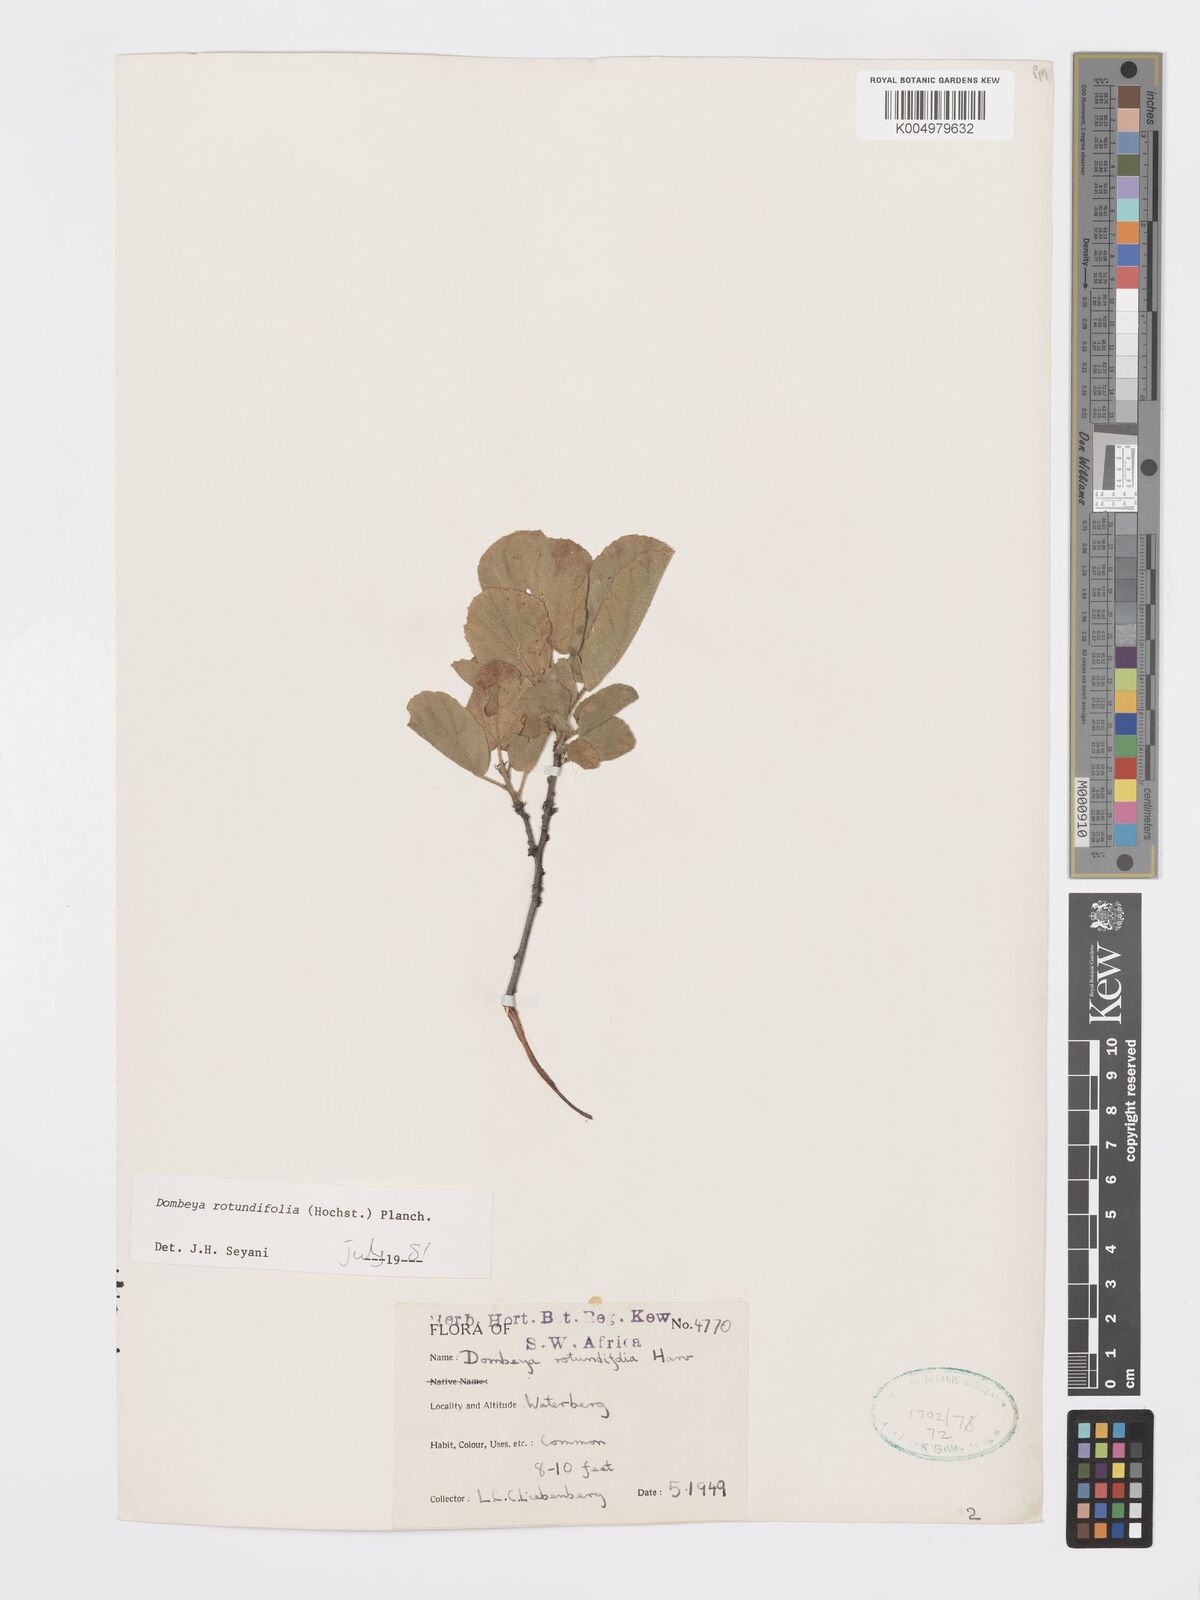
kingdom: Plantae
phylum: Tracheophyta
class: Magnoliopsida
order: Malvales
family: Malvaceae
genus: Dombeya
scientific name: Dombeya rotundifolia
